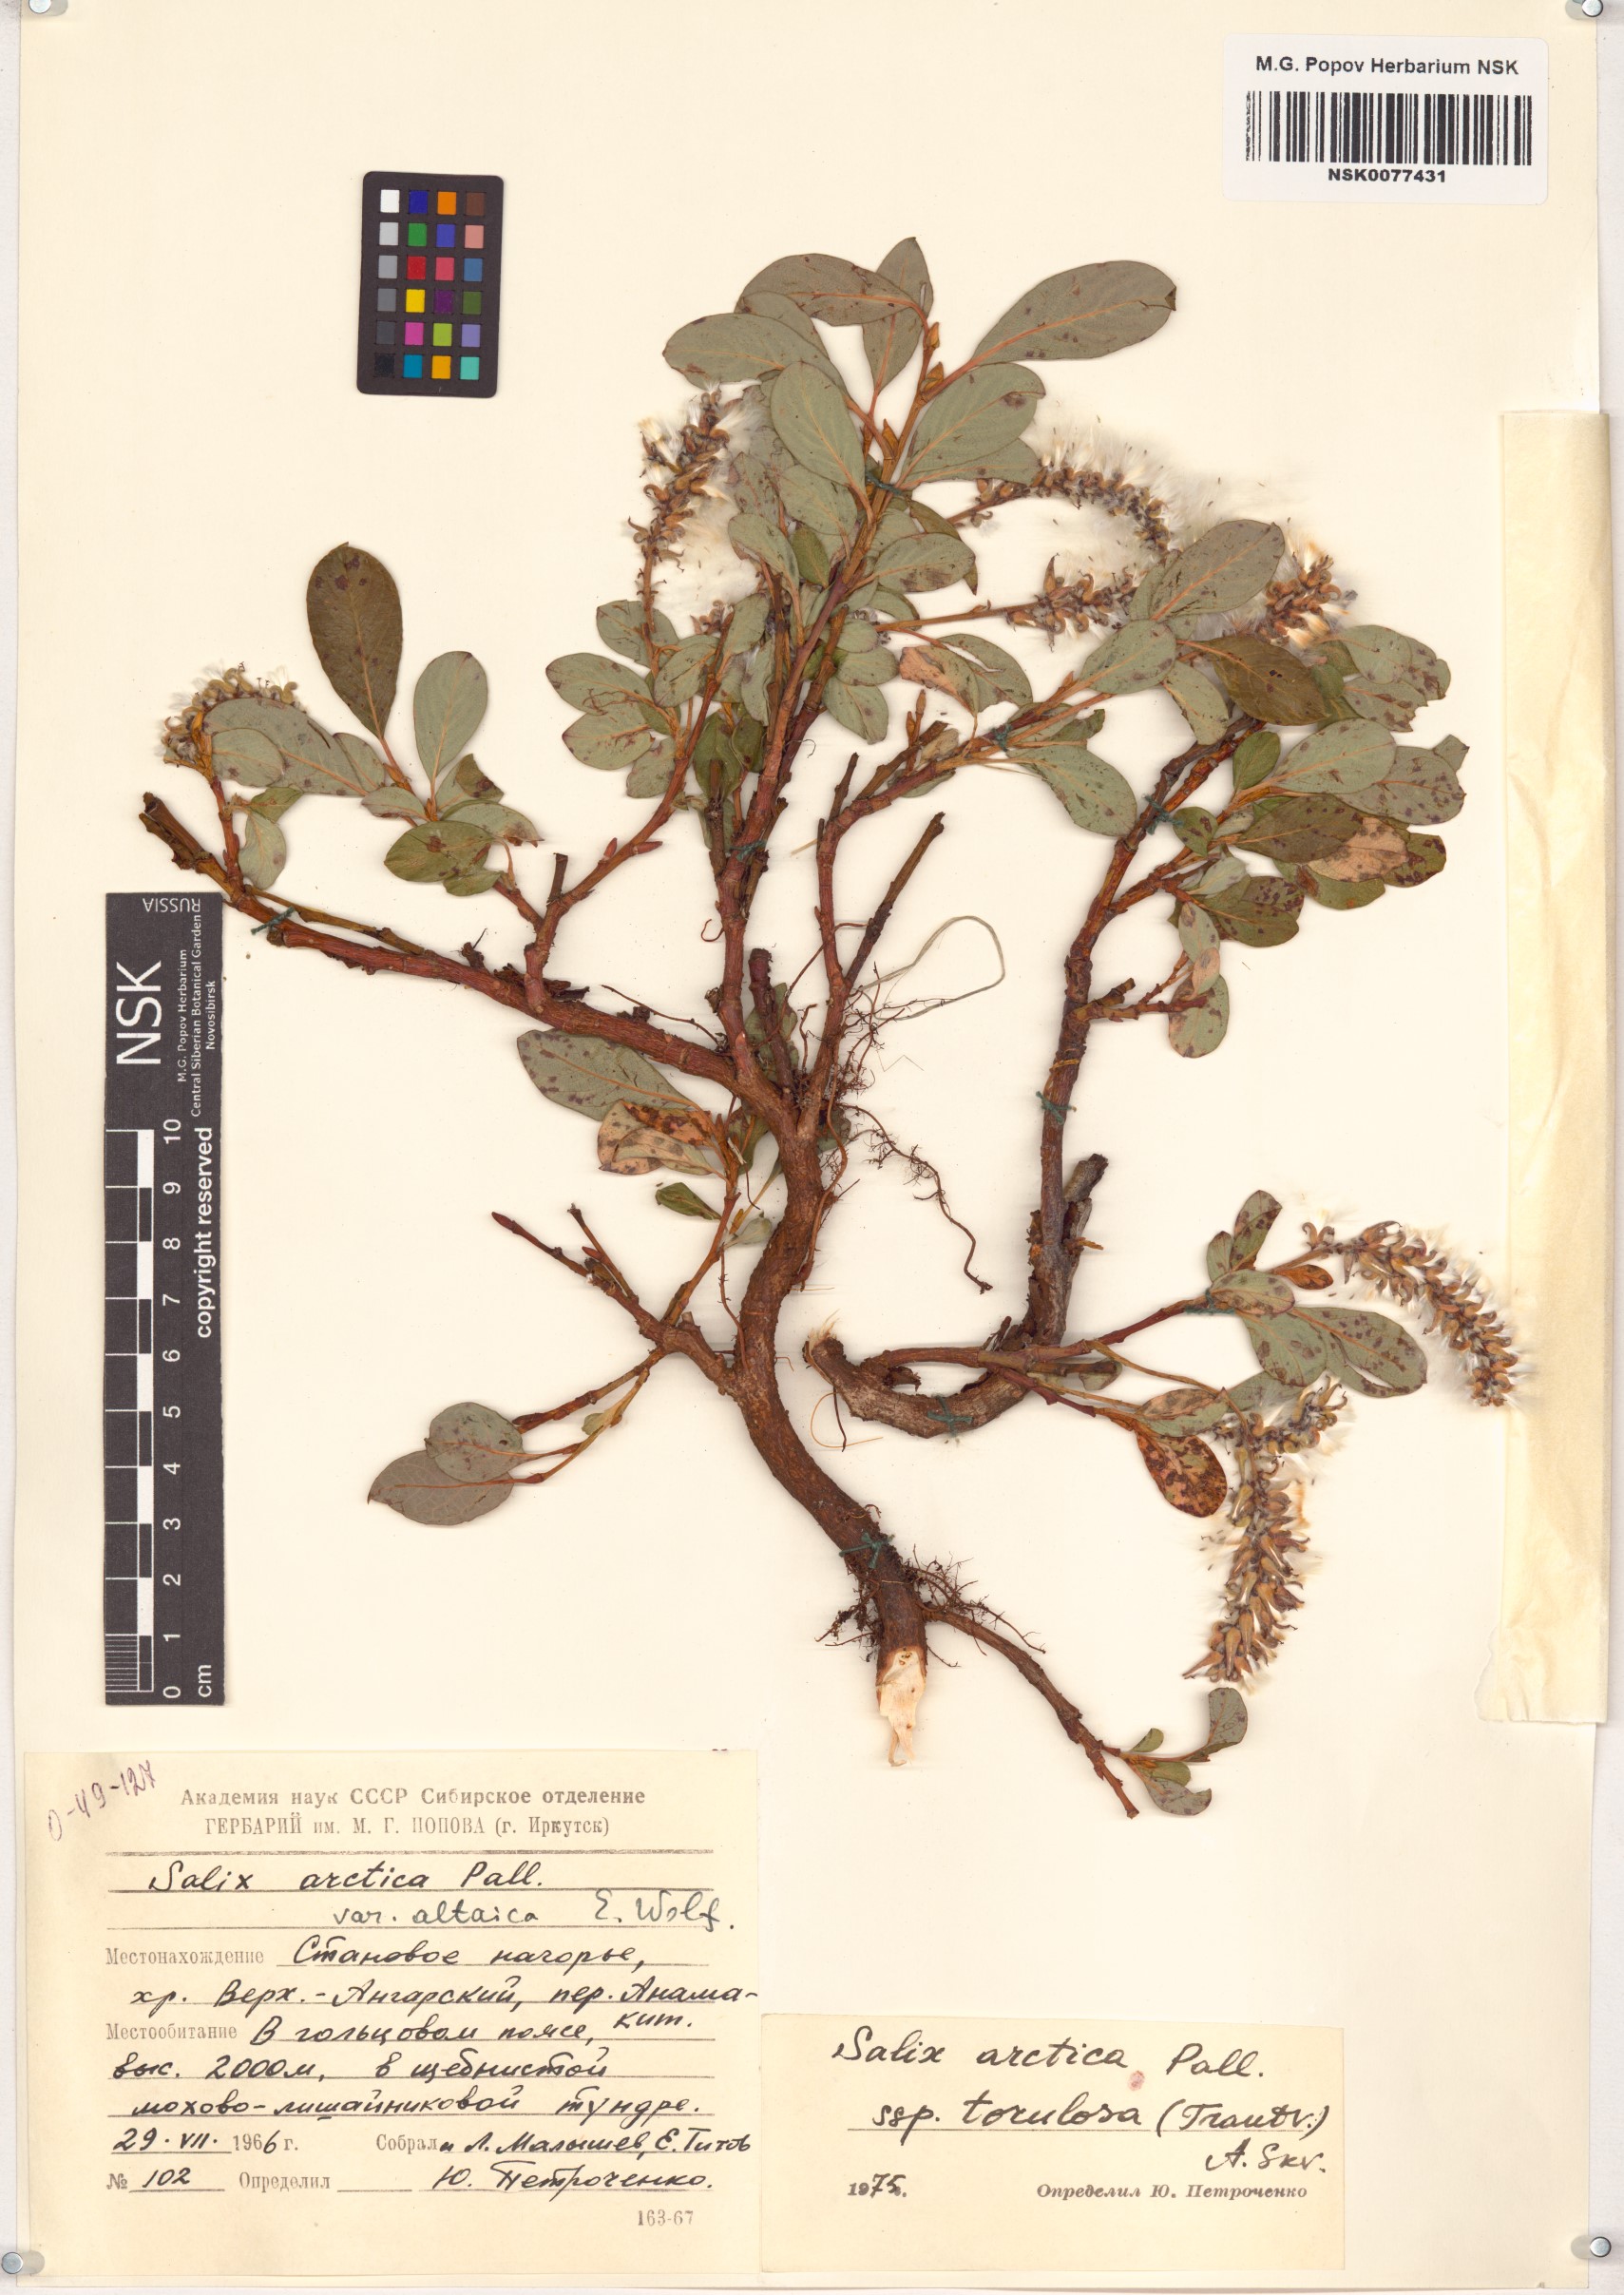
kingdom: Plantae
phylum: Tracheophyta
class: Magnoliopsida
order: Malpighiales
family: Salicaceae
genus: Salix
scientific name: Salix arctica
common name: Arctic willow
